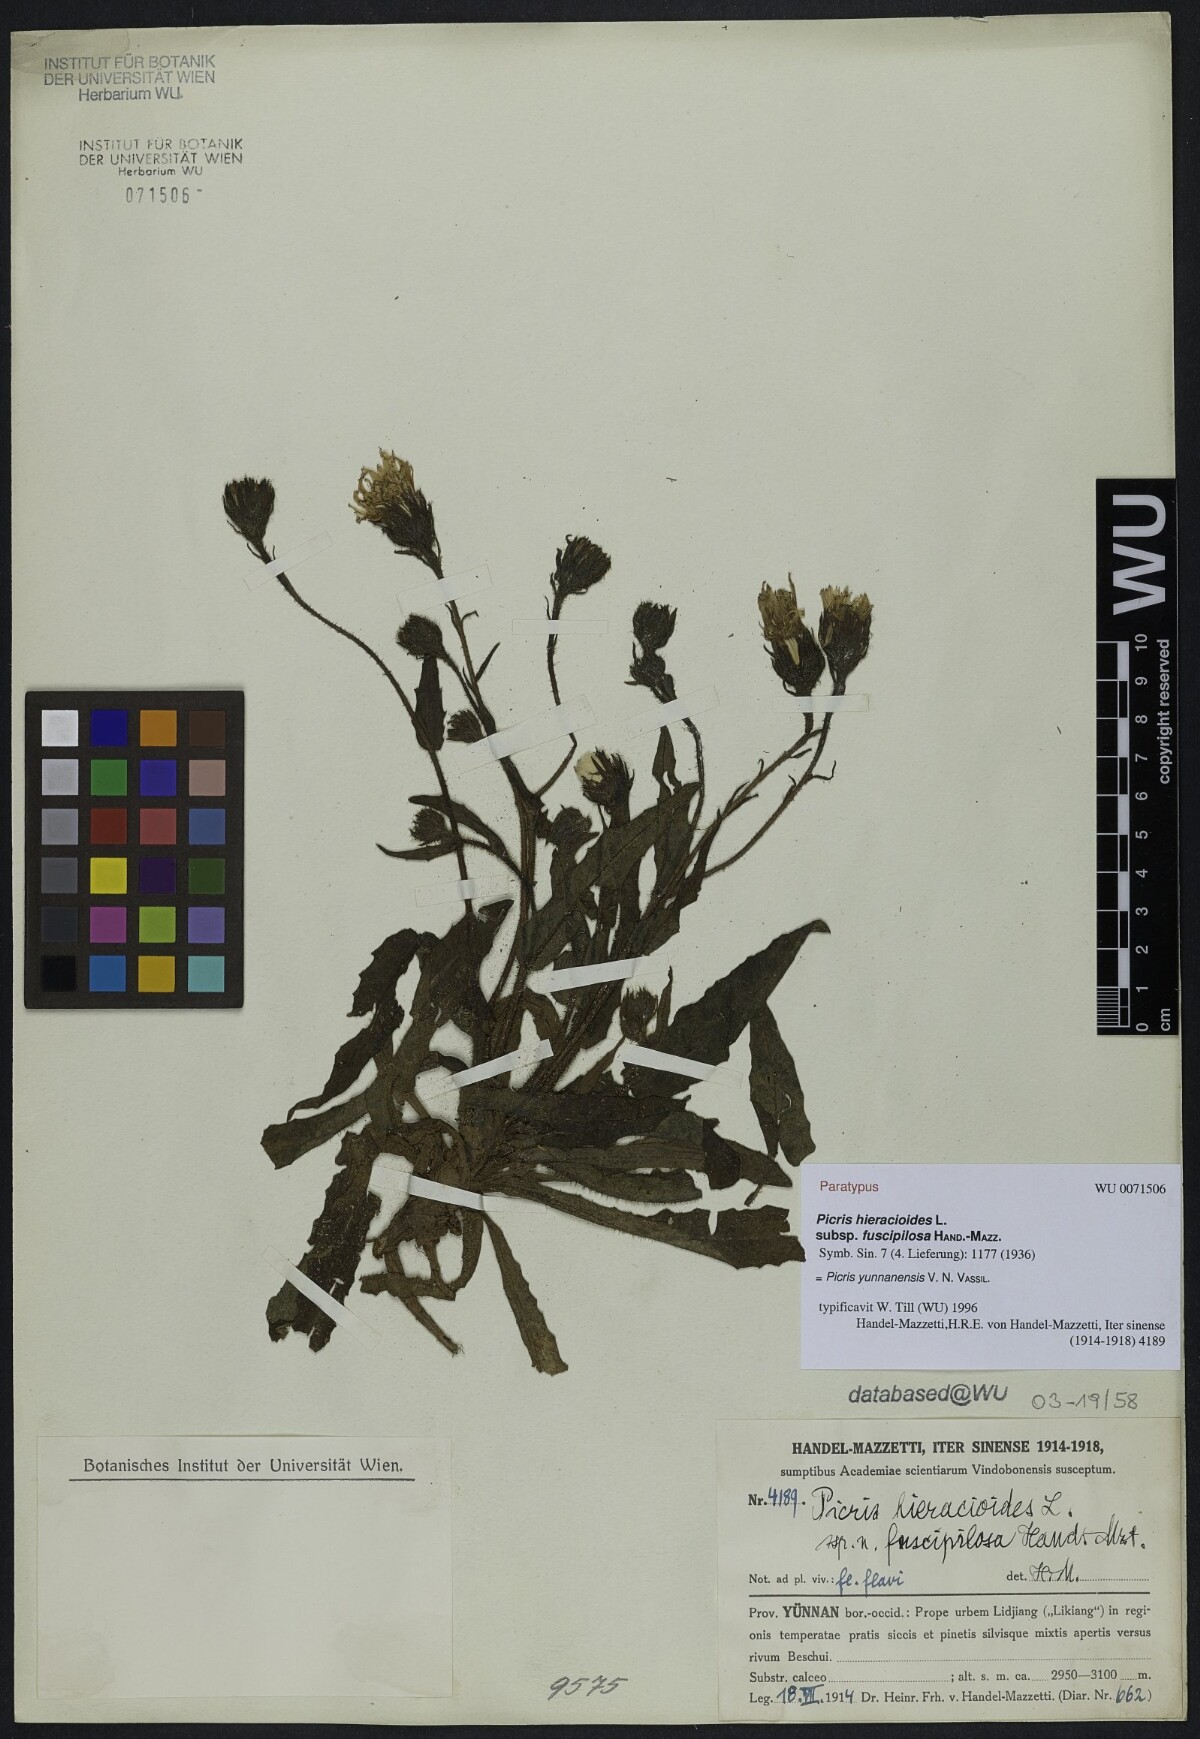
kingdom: Plantae
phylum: Tracheophyta
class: Magnoliopsida
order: Asterales
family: Asteraceae
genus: Picris
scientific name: Picris junnanensis
